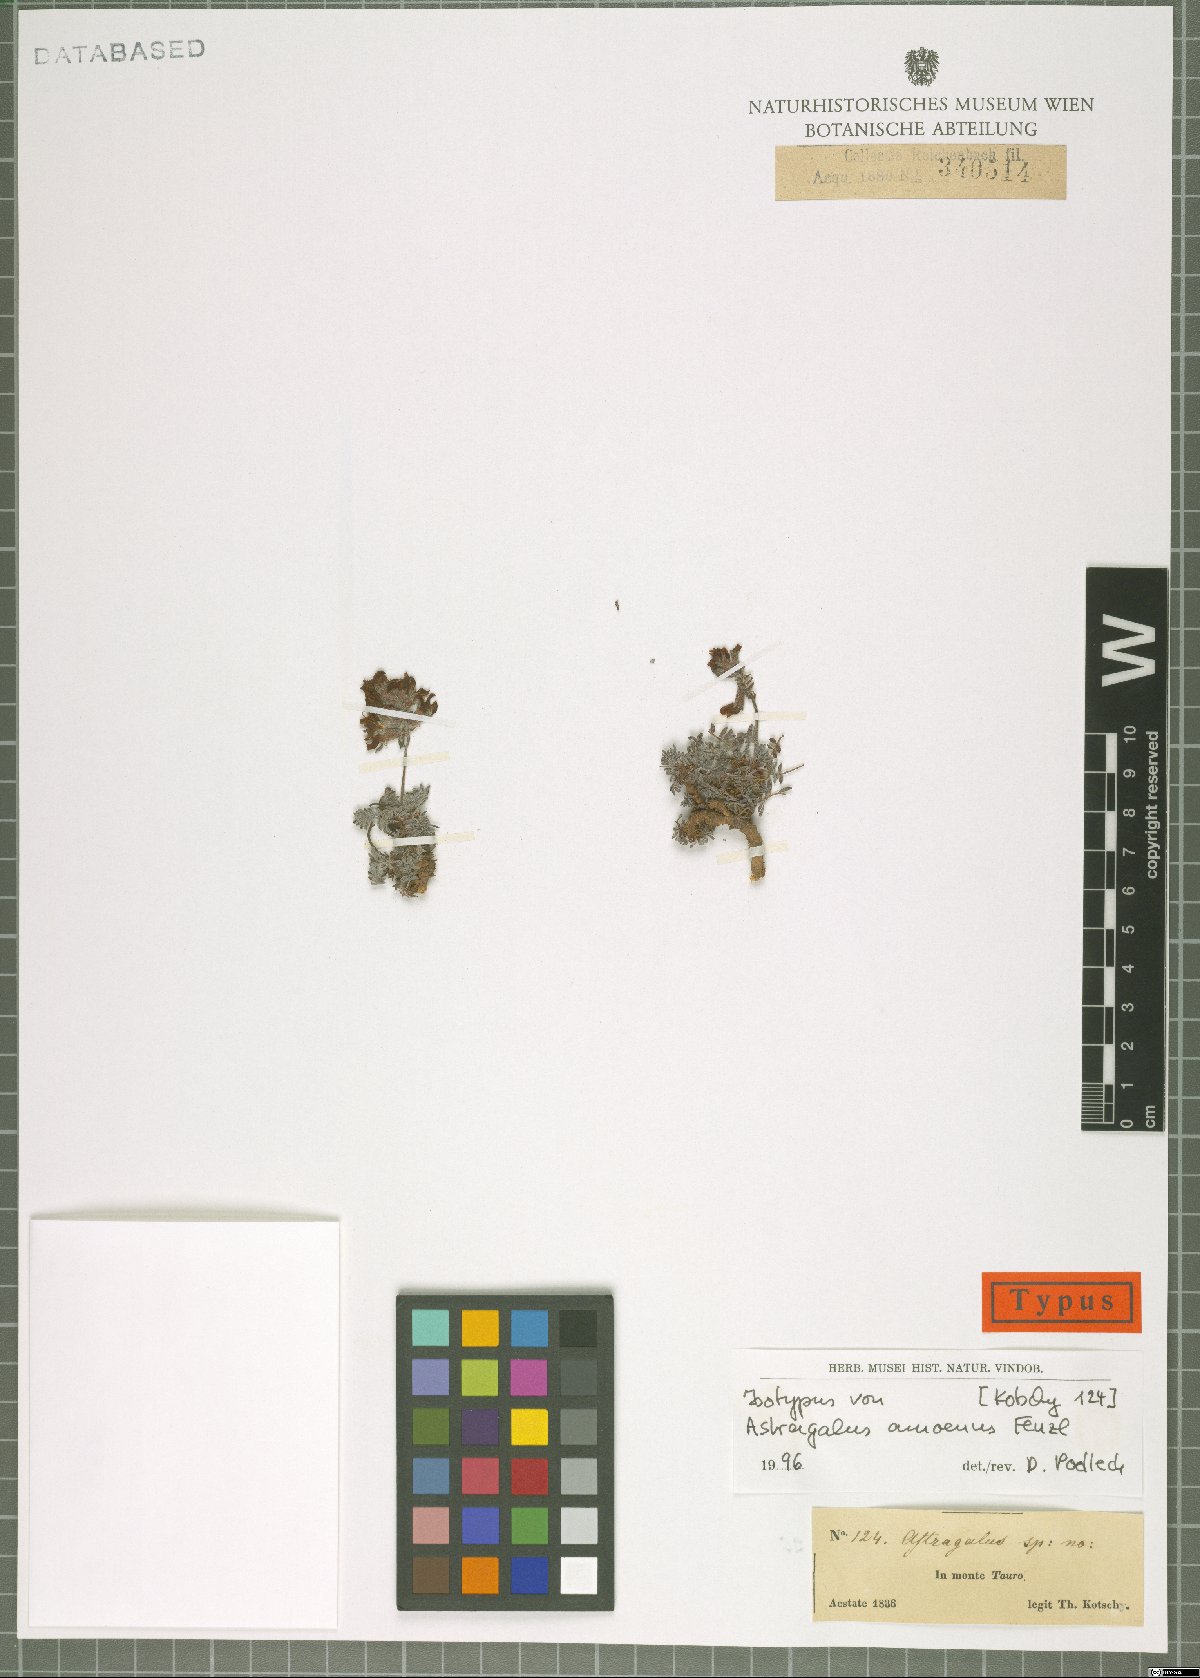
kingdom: Plantae
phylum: Tracheophyta
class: Magnoliopsida
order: Fabales
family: Fabaceae
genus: Astragalus
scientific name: Astragalus amoenus
